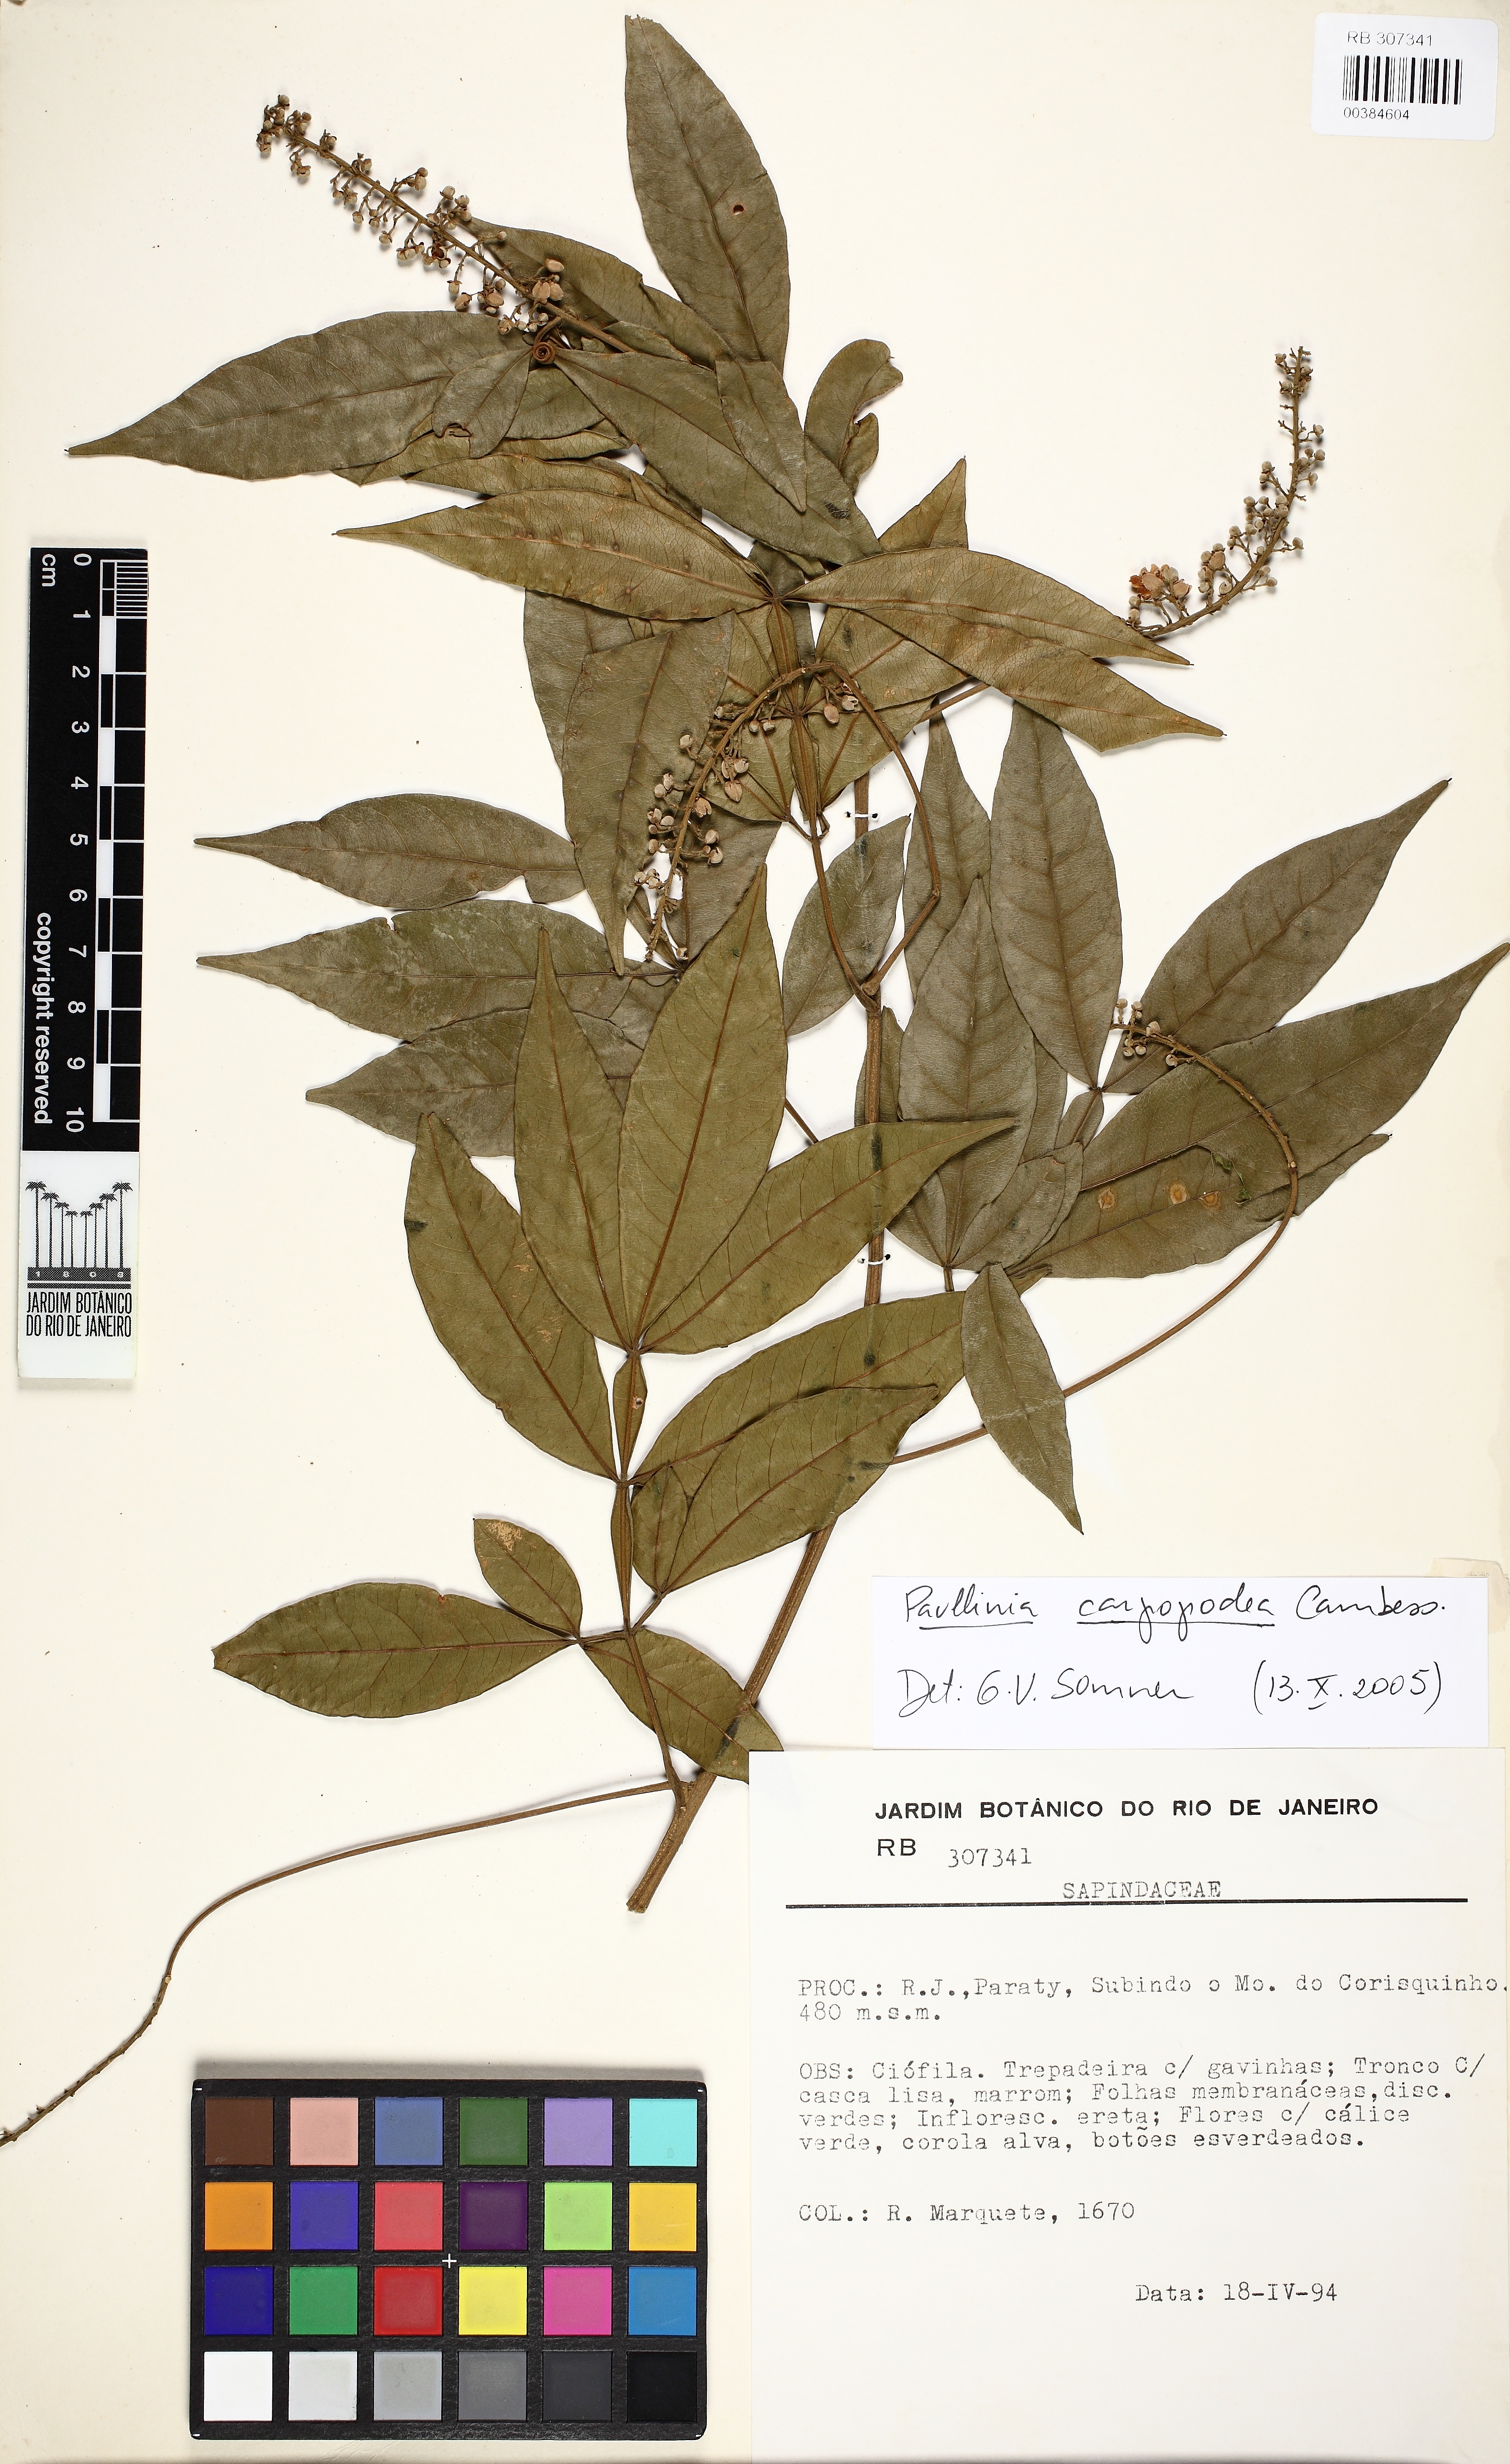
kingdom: Plantae
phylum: Tracheophyta
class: Magnoliopsida
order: Sapindales
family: Sapindaceae
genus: Paullinia
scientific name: Paullinia carpopodea
